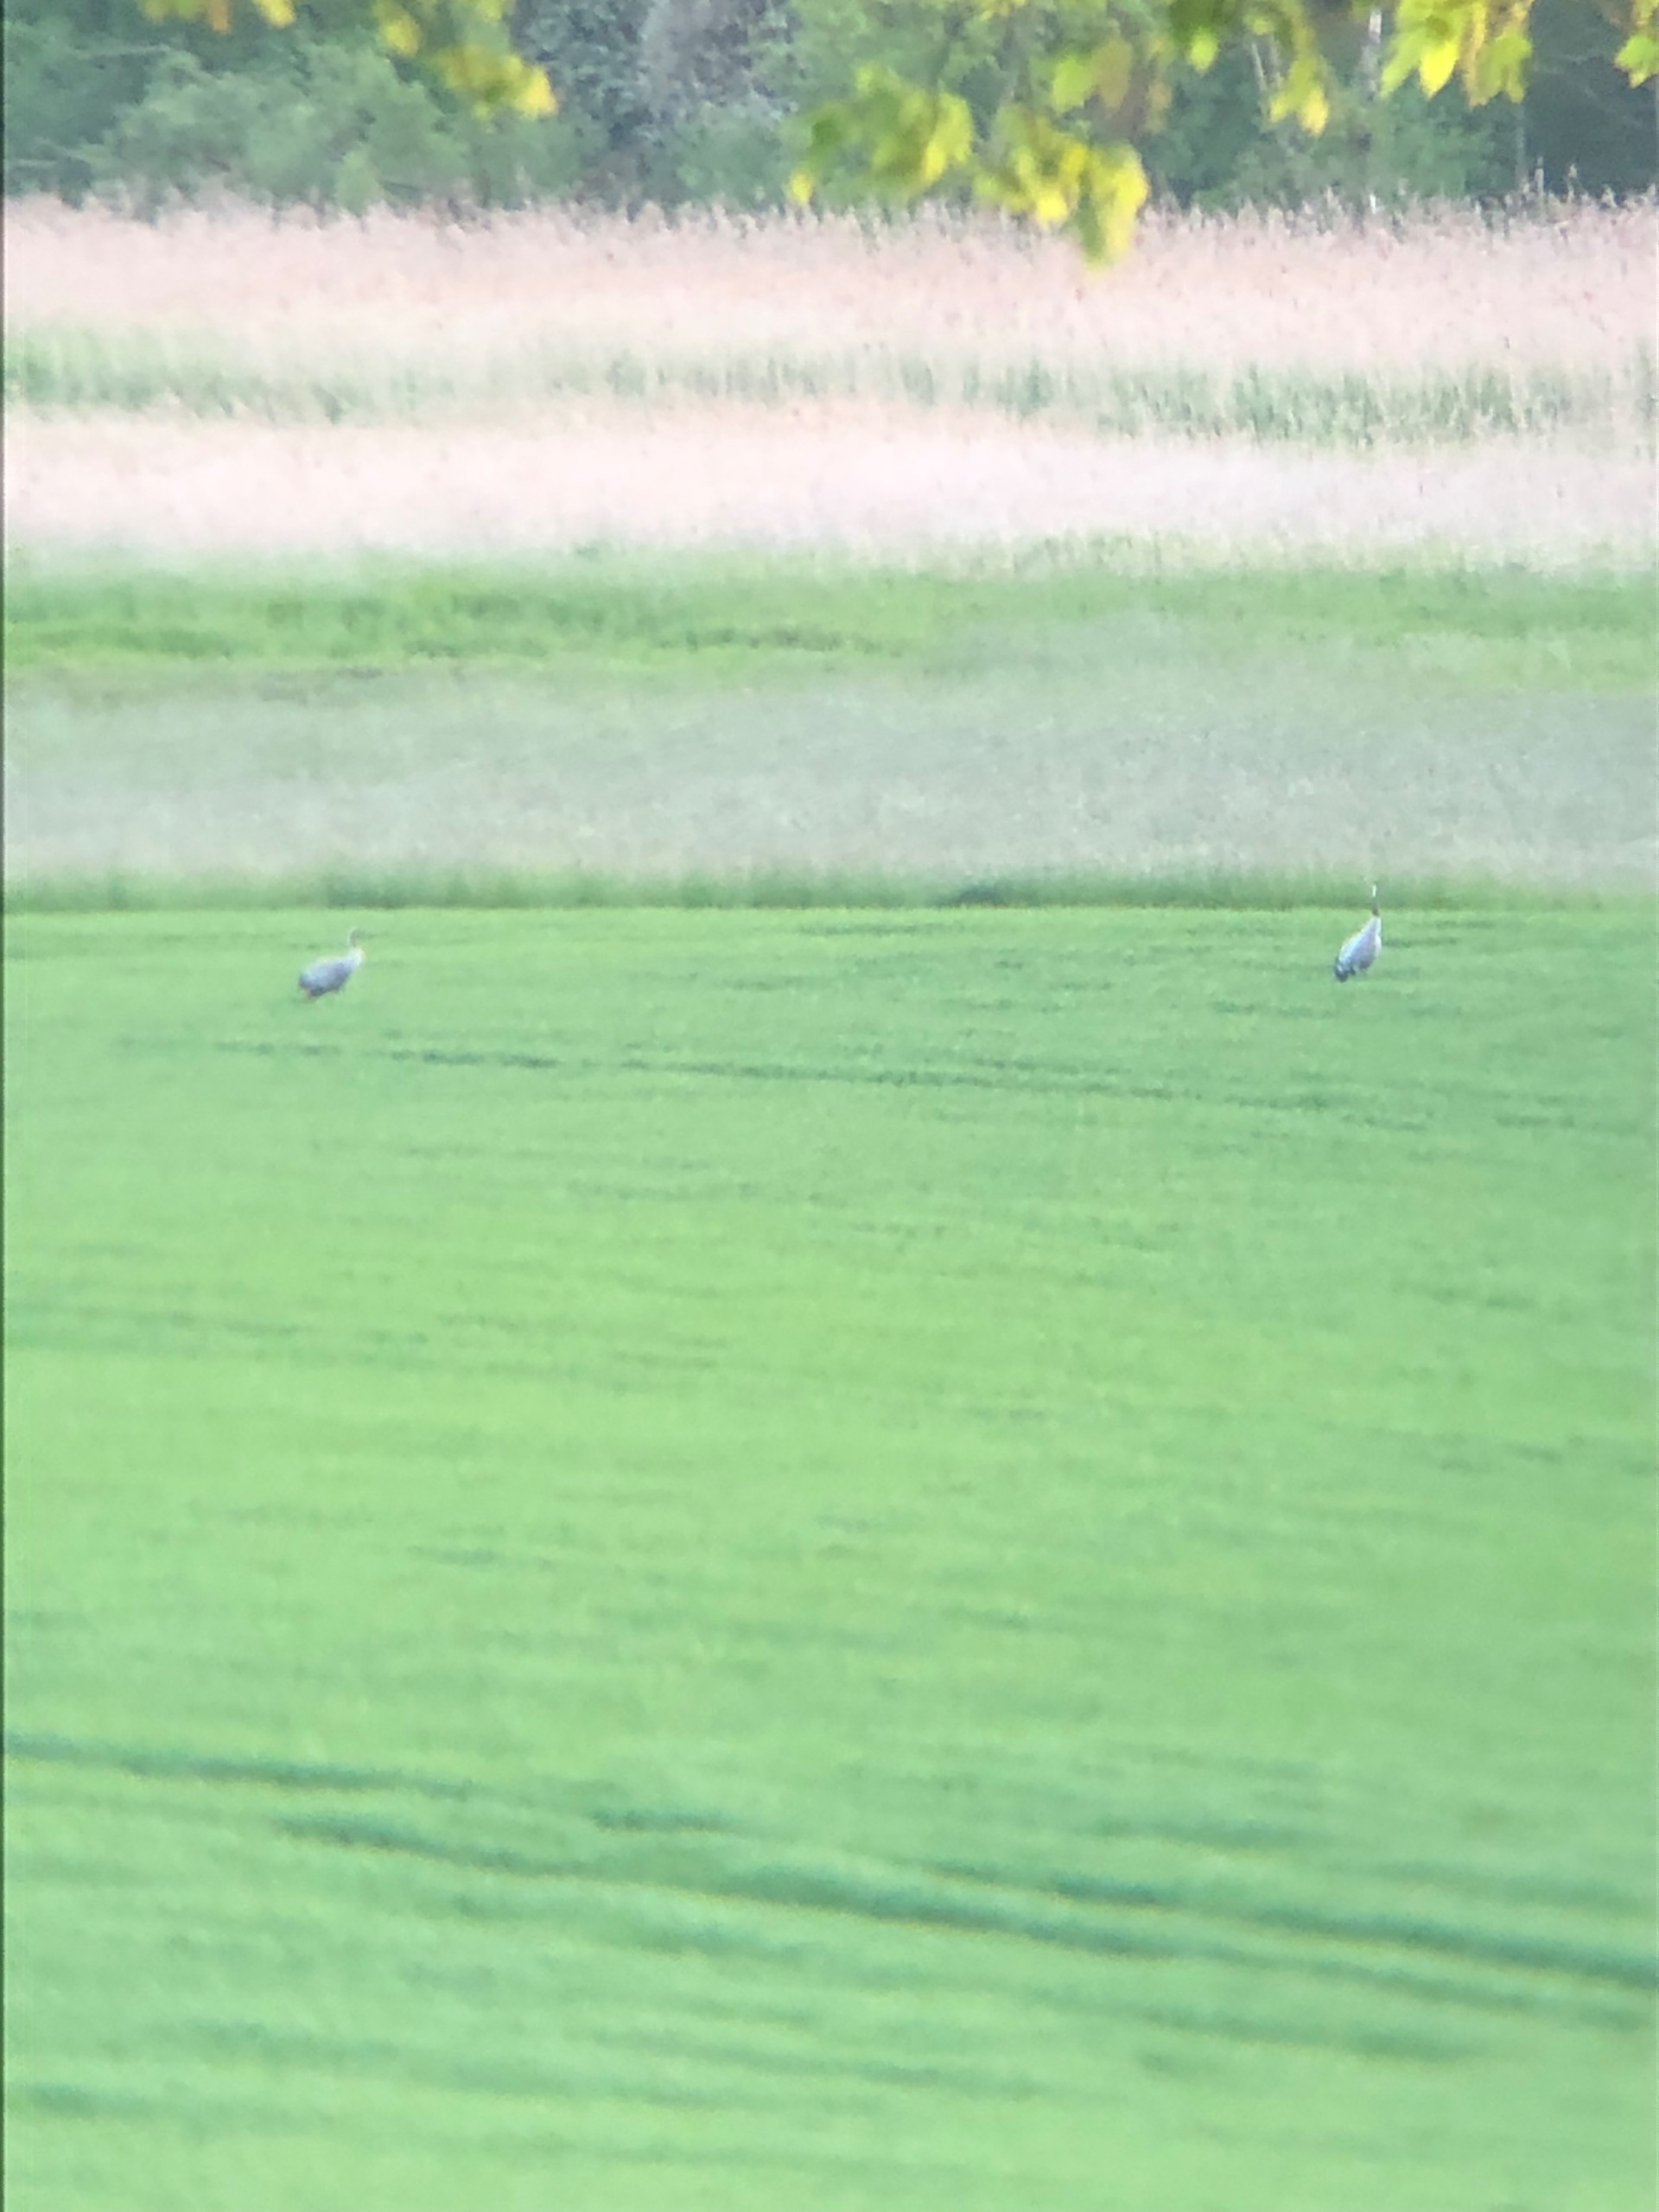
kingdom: Animalia
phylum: Chordata
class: Aves
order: Gruiformes
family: Gruidae
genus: Grus
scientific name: Grus grus
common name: Trane
